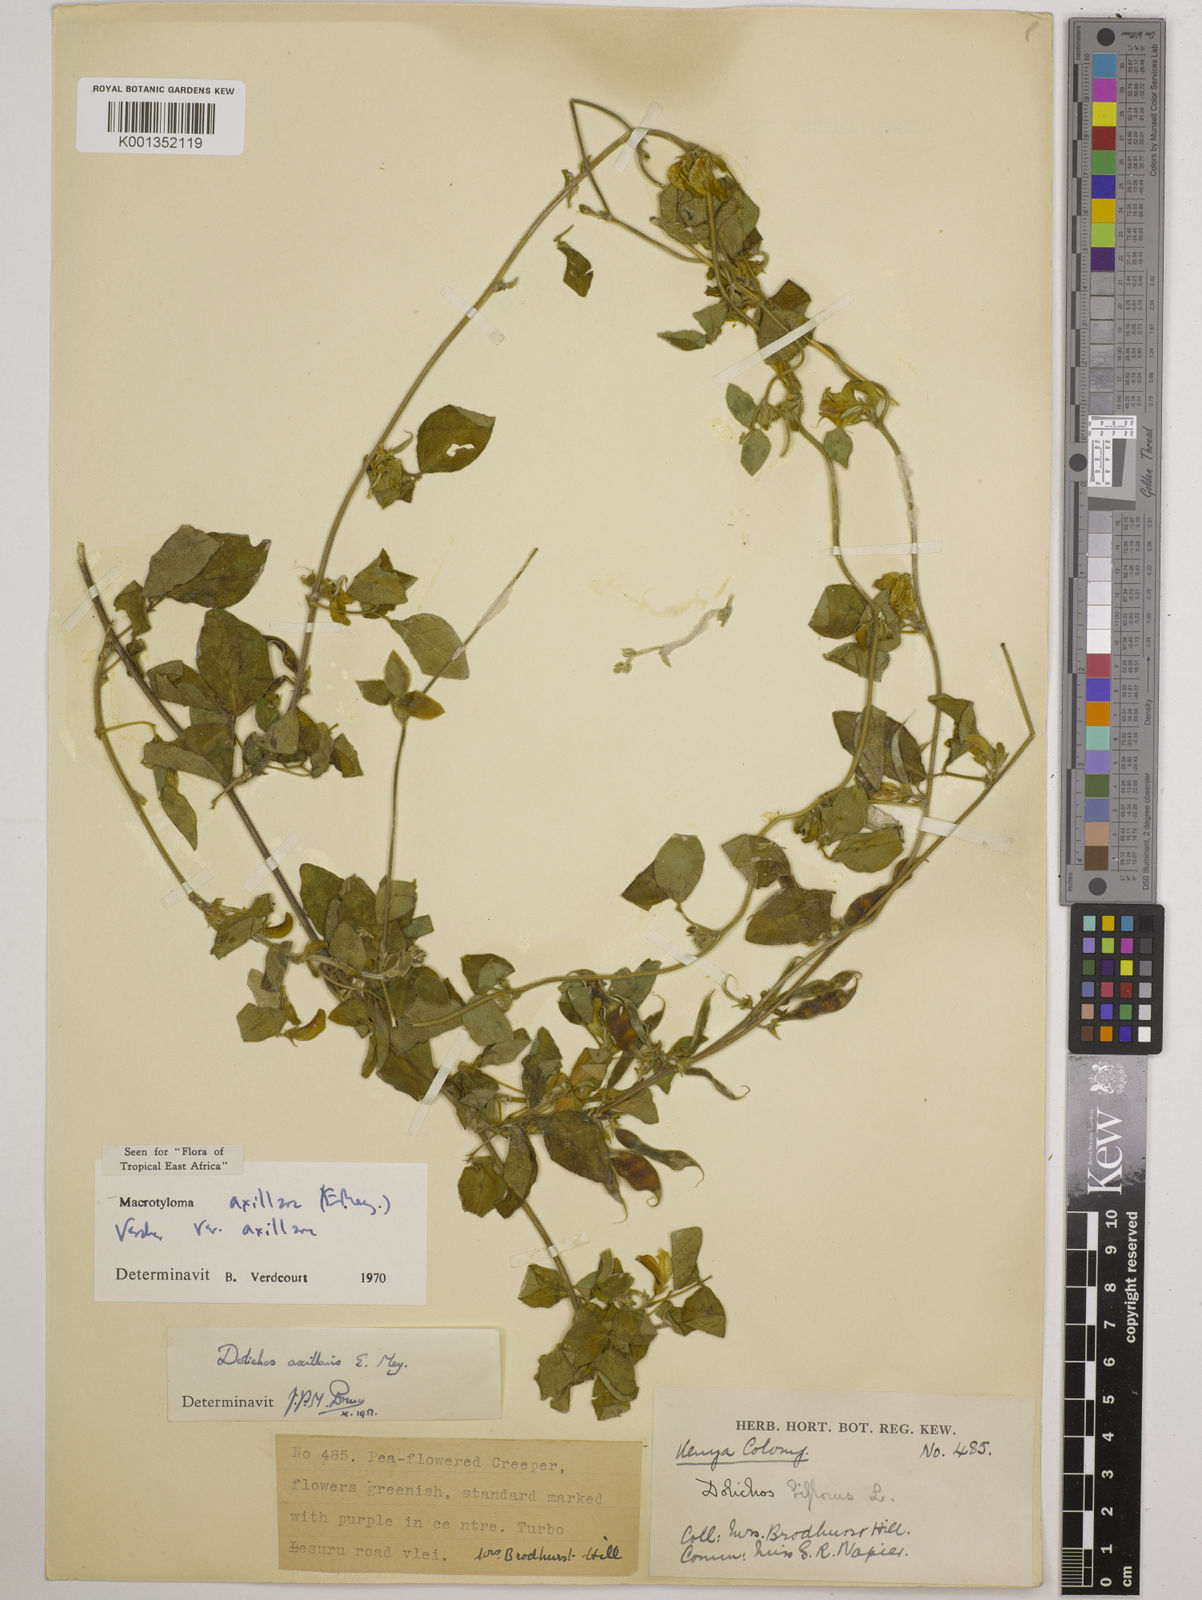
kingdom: Plantae
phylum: Tracheophyta
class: Magnoliopsida
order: Fabales
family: Fabaceae
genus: Macrotyloma
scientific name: Macrotyloma axillare
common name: Perennial horsegram
